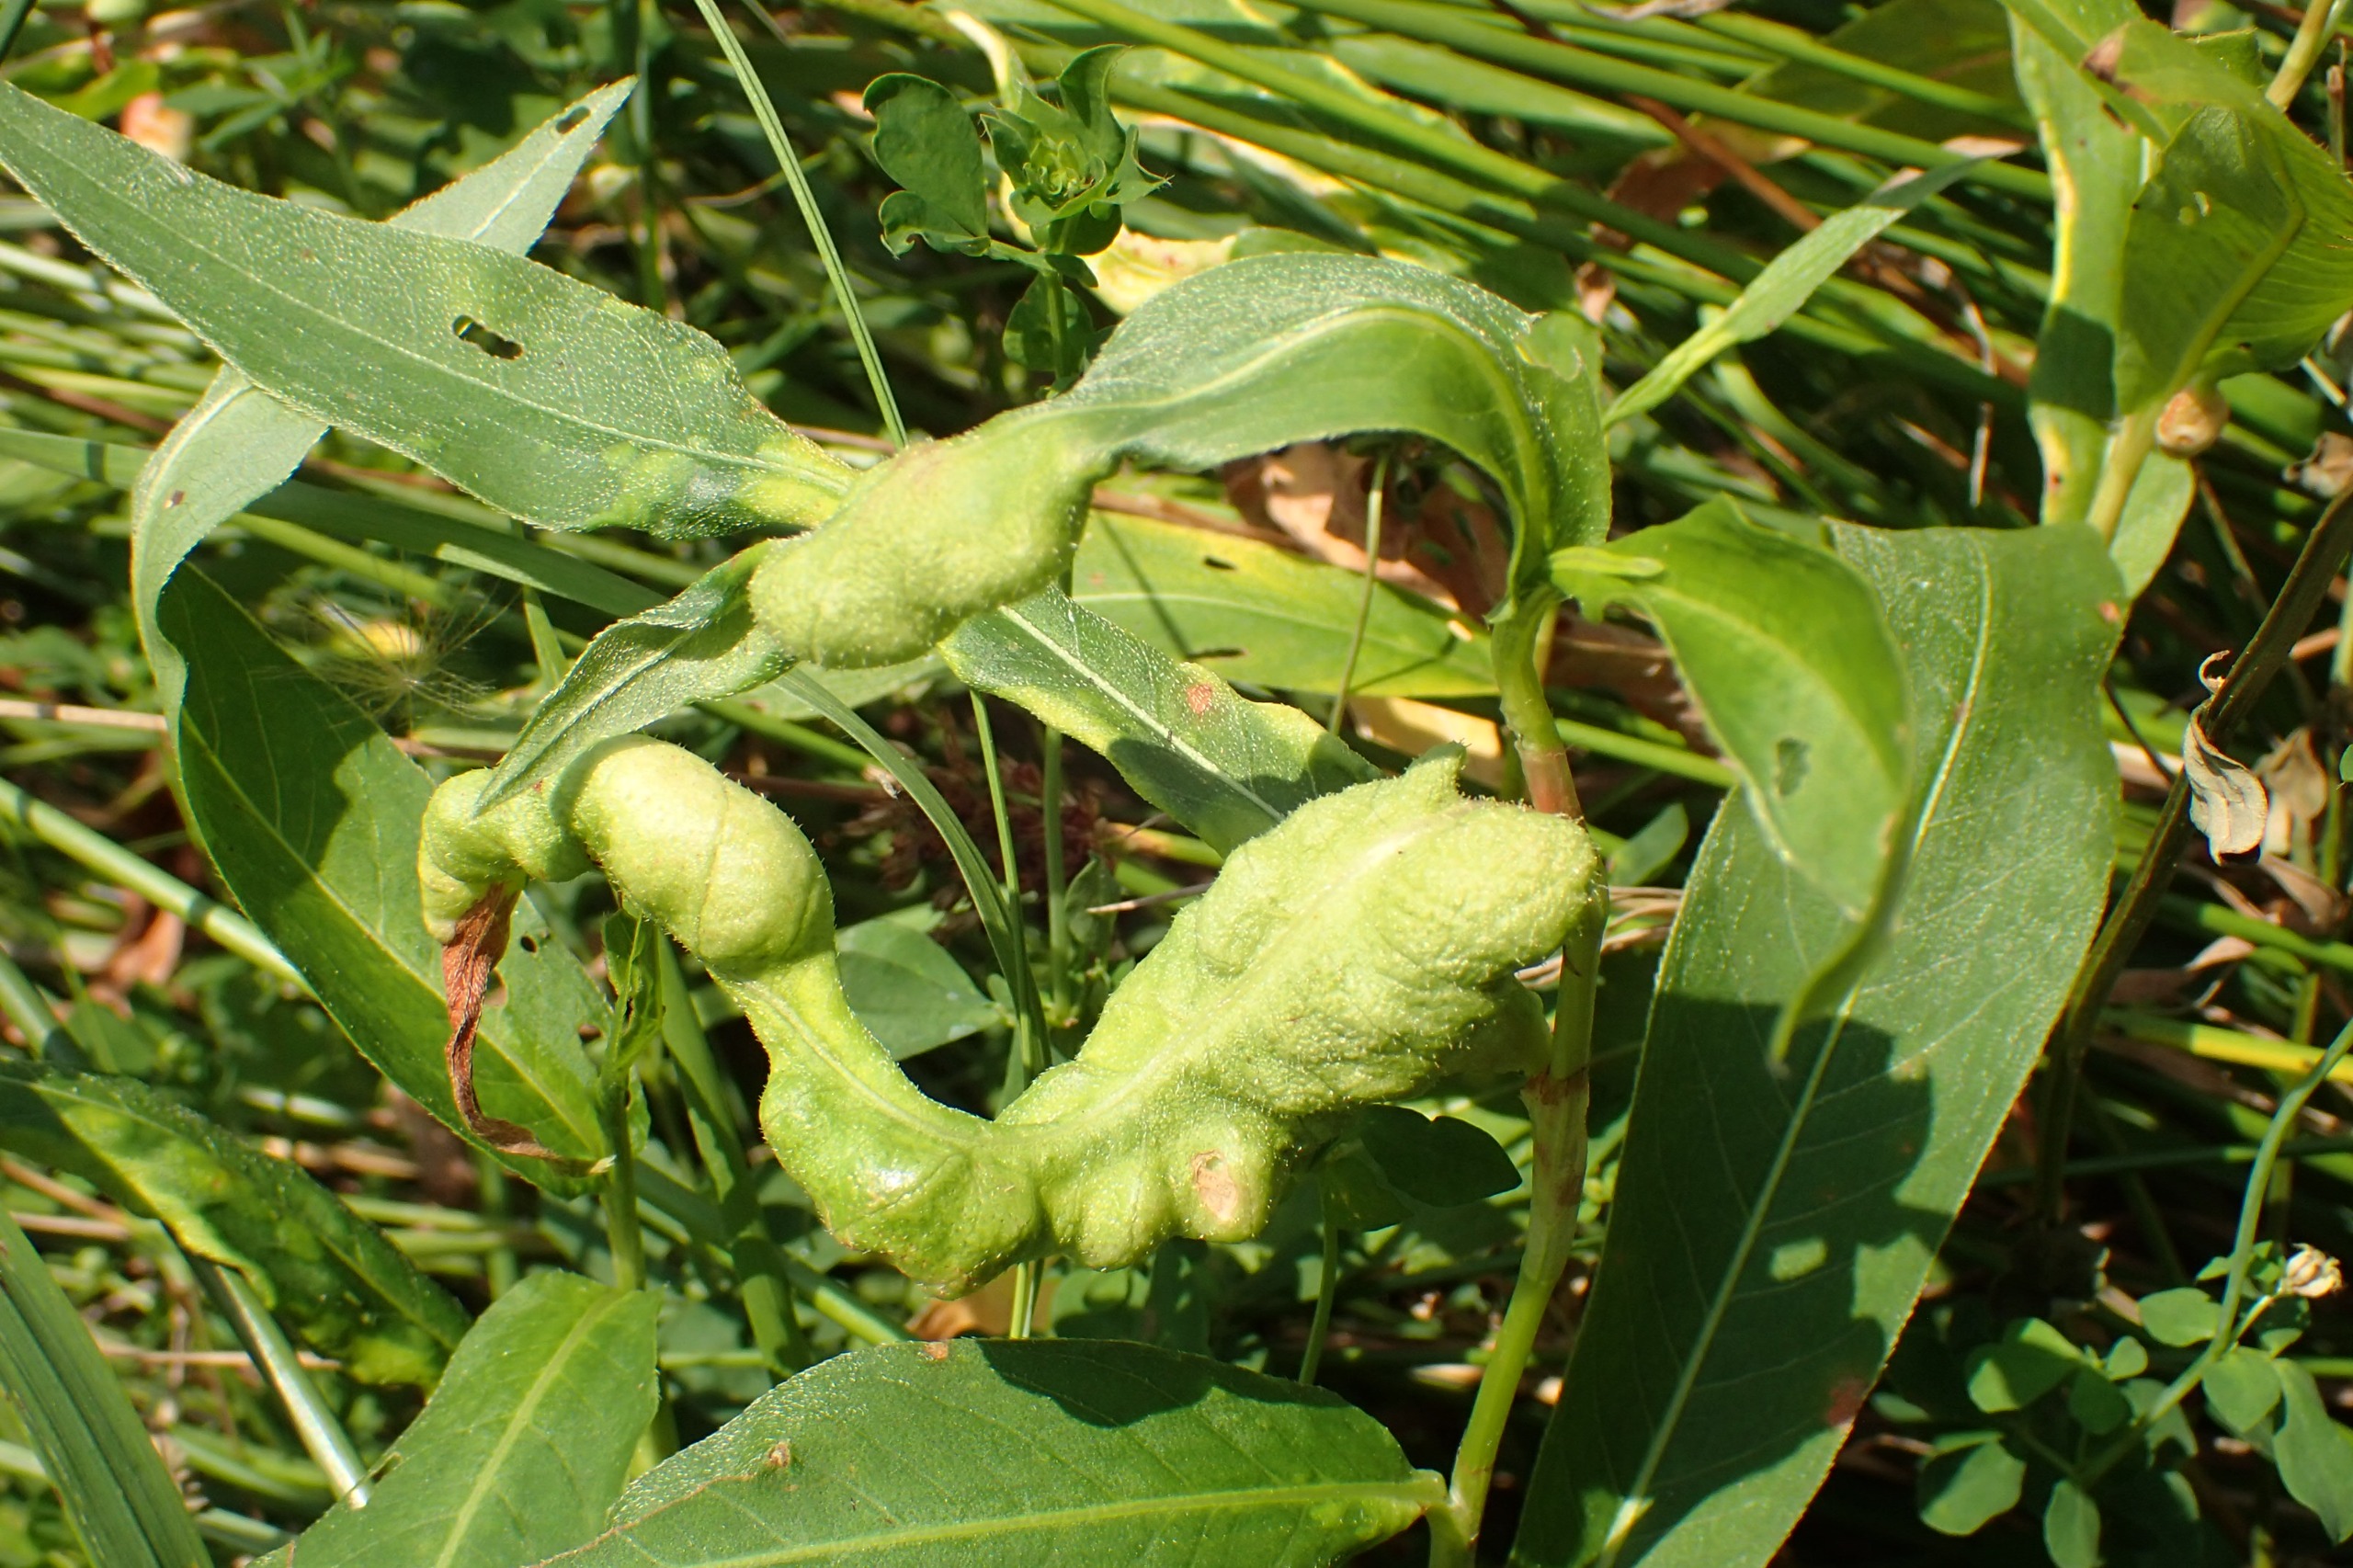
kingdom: Animalia
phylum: Arthropoda
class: Insecta
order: Diptera
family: Cecidomyiidae
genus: Wachtliella
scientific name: Wachtliella persicariae
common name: Pileurtgalmyg
